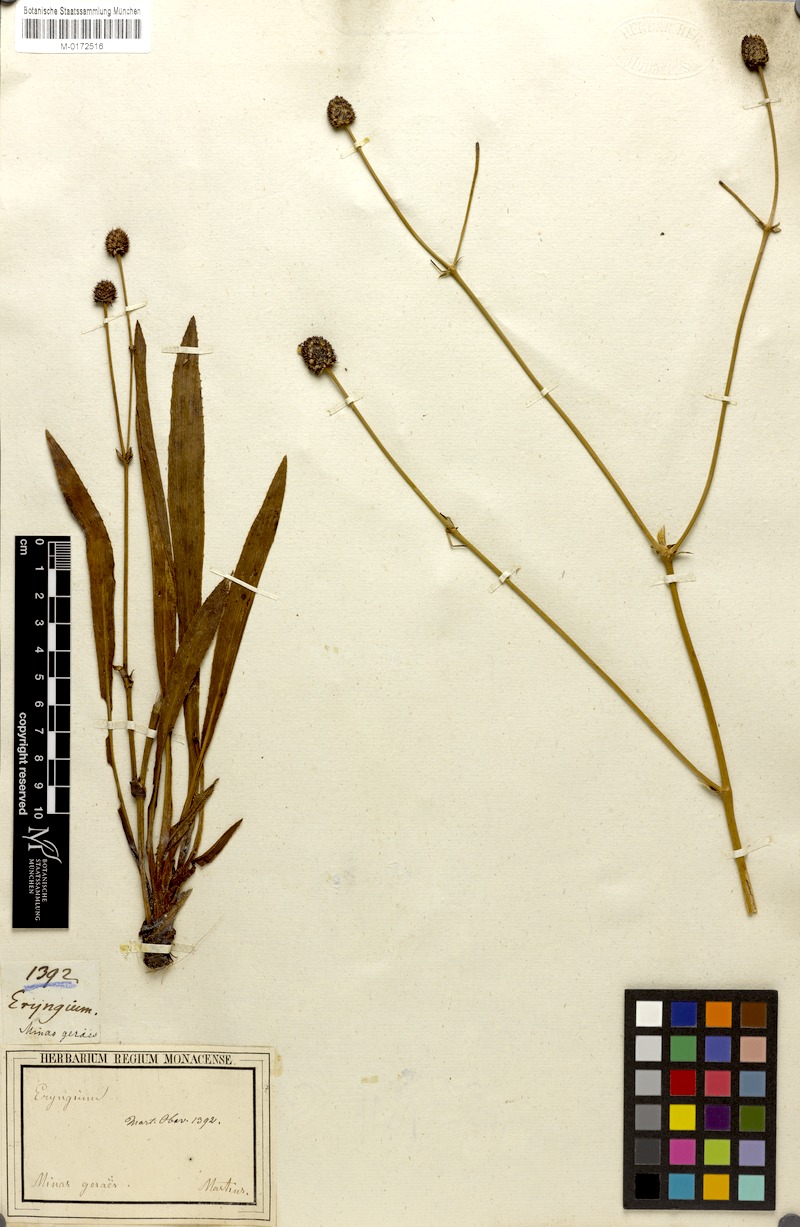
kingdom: Plantae
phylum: Tracheophyta
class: Magnoliopsida
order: Apiales
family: Apiaceae
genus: Eryngium
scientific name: Eryngium sanguisorba
